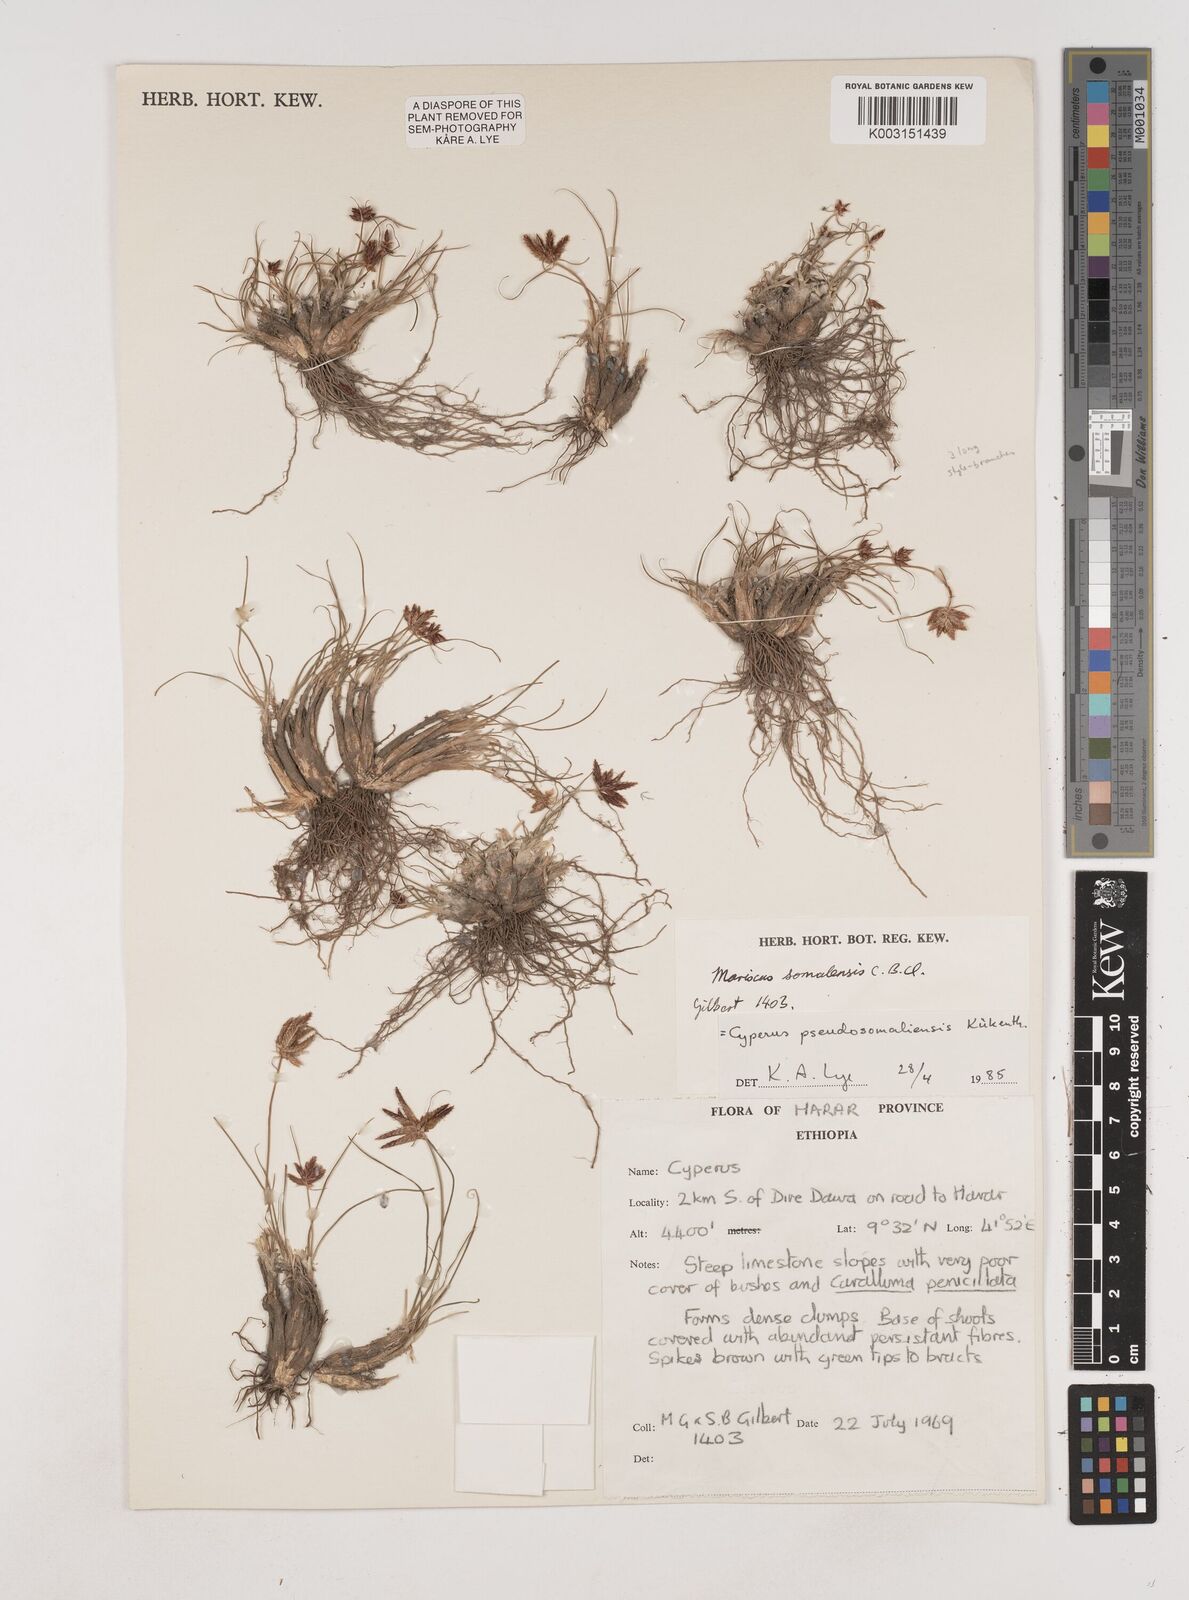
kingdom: Plantae
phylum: Tracheophyta
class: Liliopsida
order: Poales
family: Cyperaceae
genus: Cyperus
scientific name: Cyperus pseudosomaliensis
